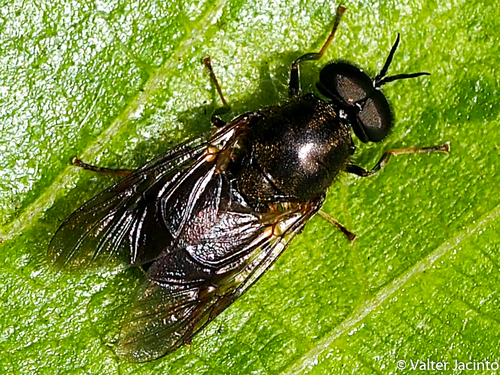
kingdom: Animalia
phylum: Arthropoda
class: Insecta
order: Diptera
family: Stratiomyidae
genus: Adoxomyia
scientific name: Adoxomyia dahlii
